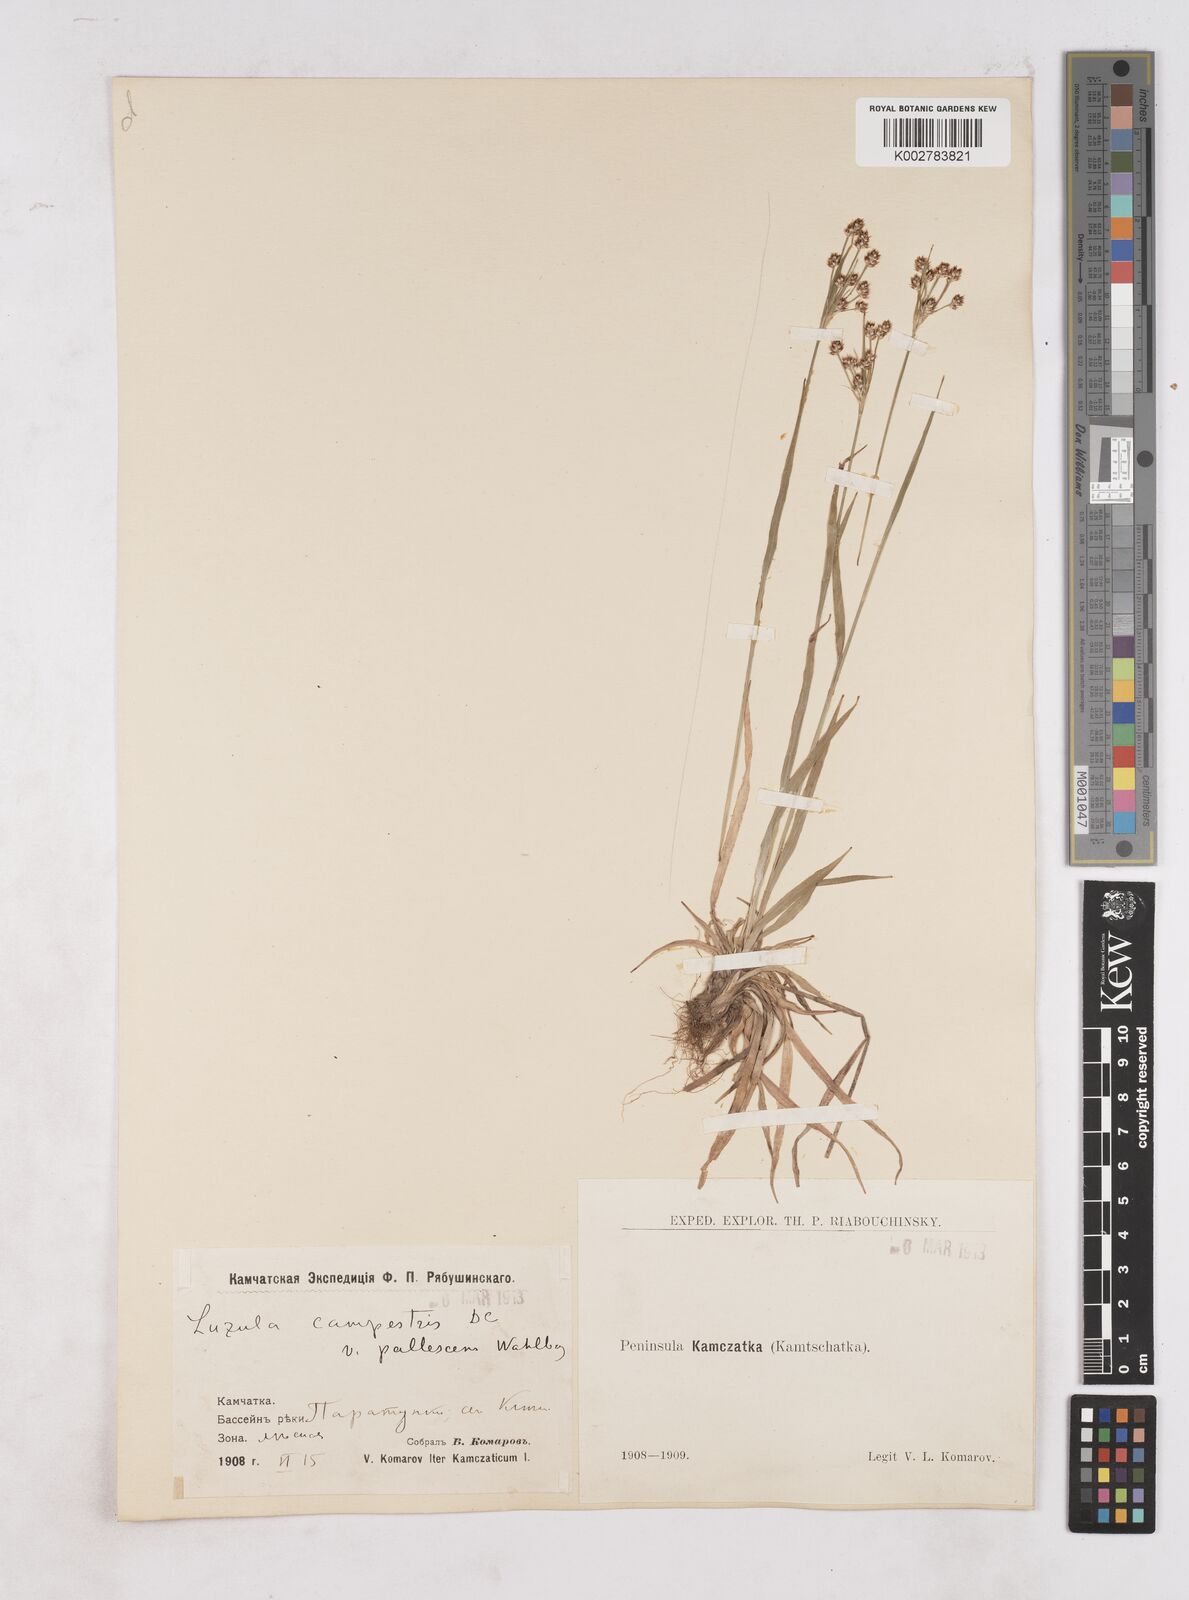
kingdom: Plantae
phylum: Tracheophyta
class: Liliopsida
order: Poales
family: Juncaceae
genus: Luzula
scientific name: Luzula pallescens
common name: Fen wood-rush
